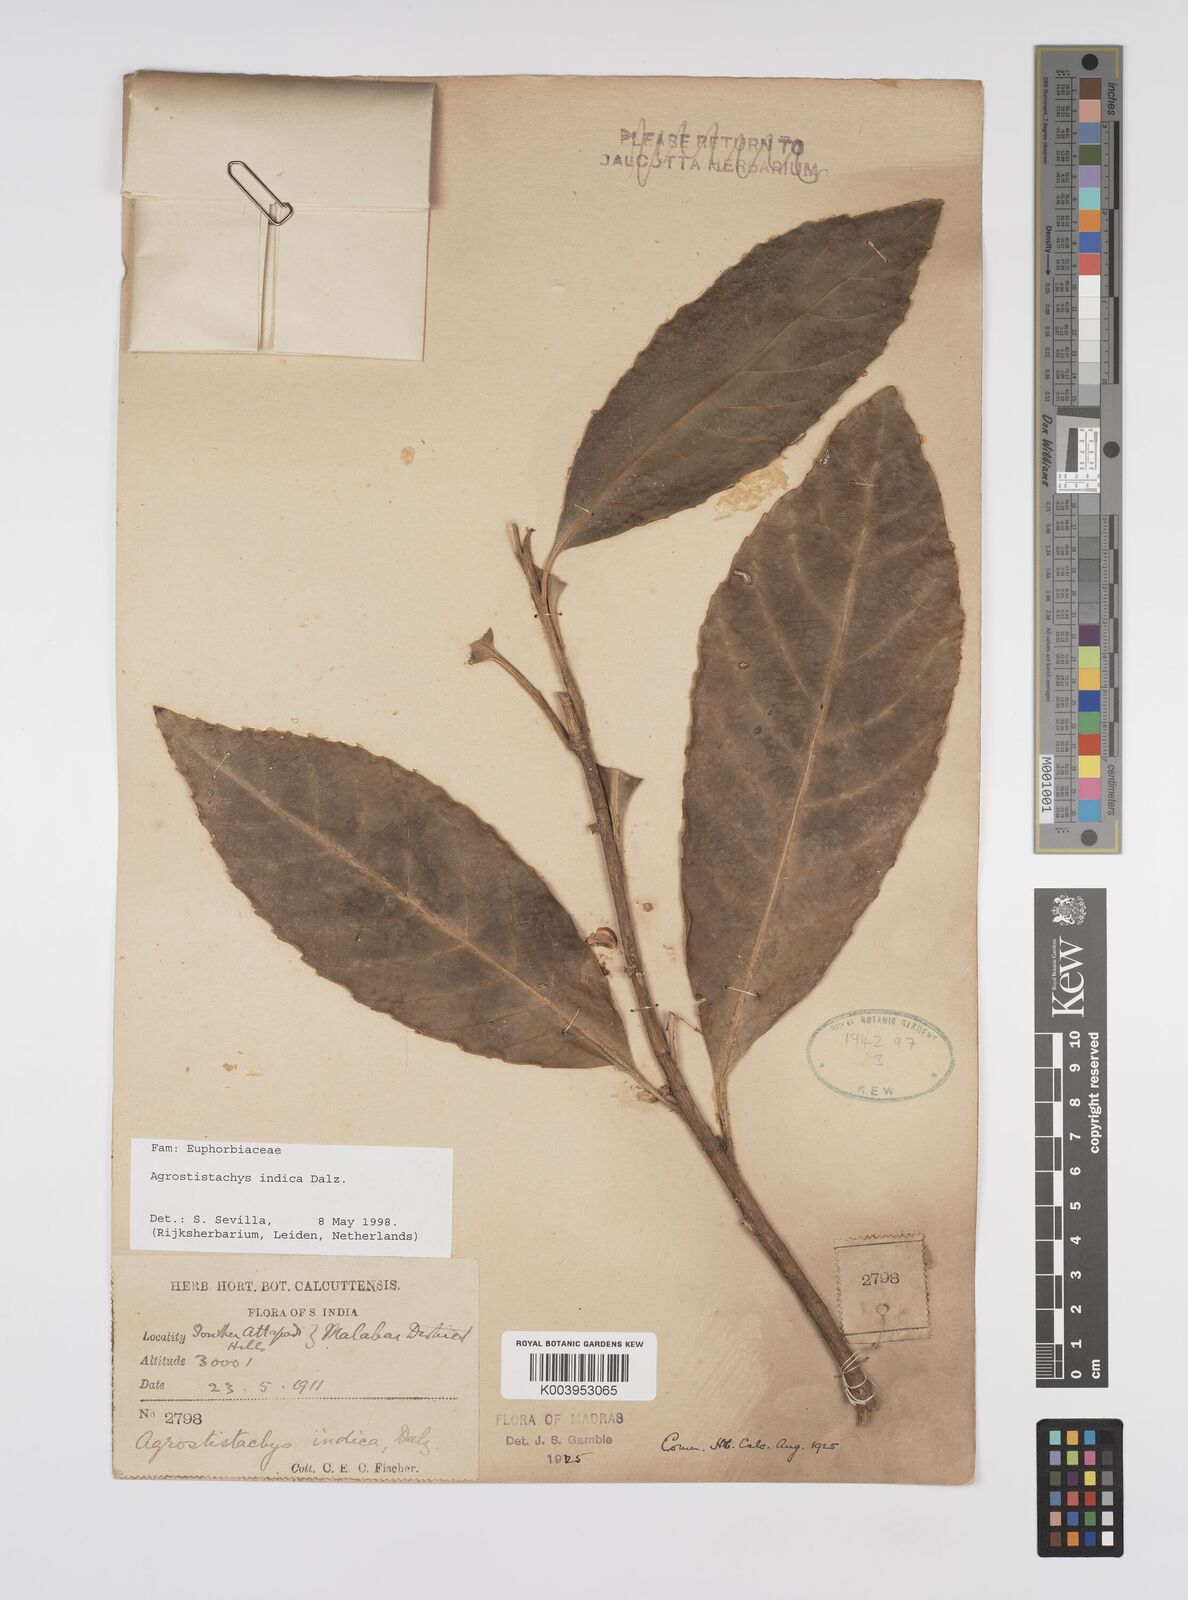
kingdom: Plantae
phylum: Tracheophyta
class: Magnoliopsida
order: Malpighiales
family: Euphorbiaceae
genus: Agrostistachys
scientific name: Agrostistachys indica
